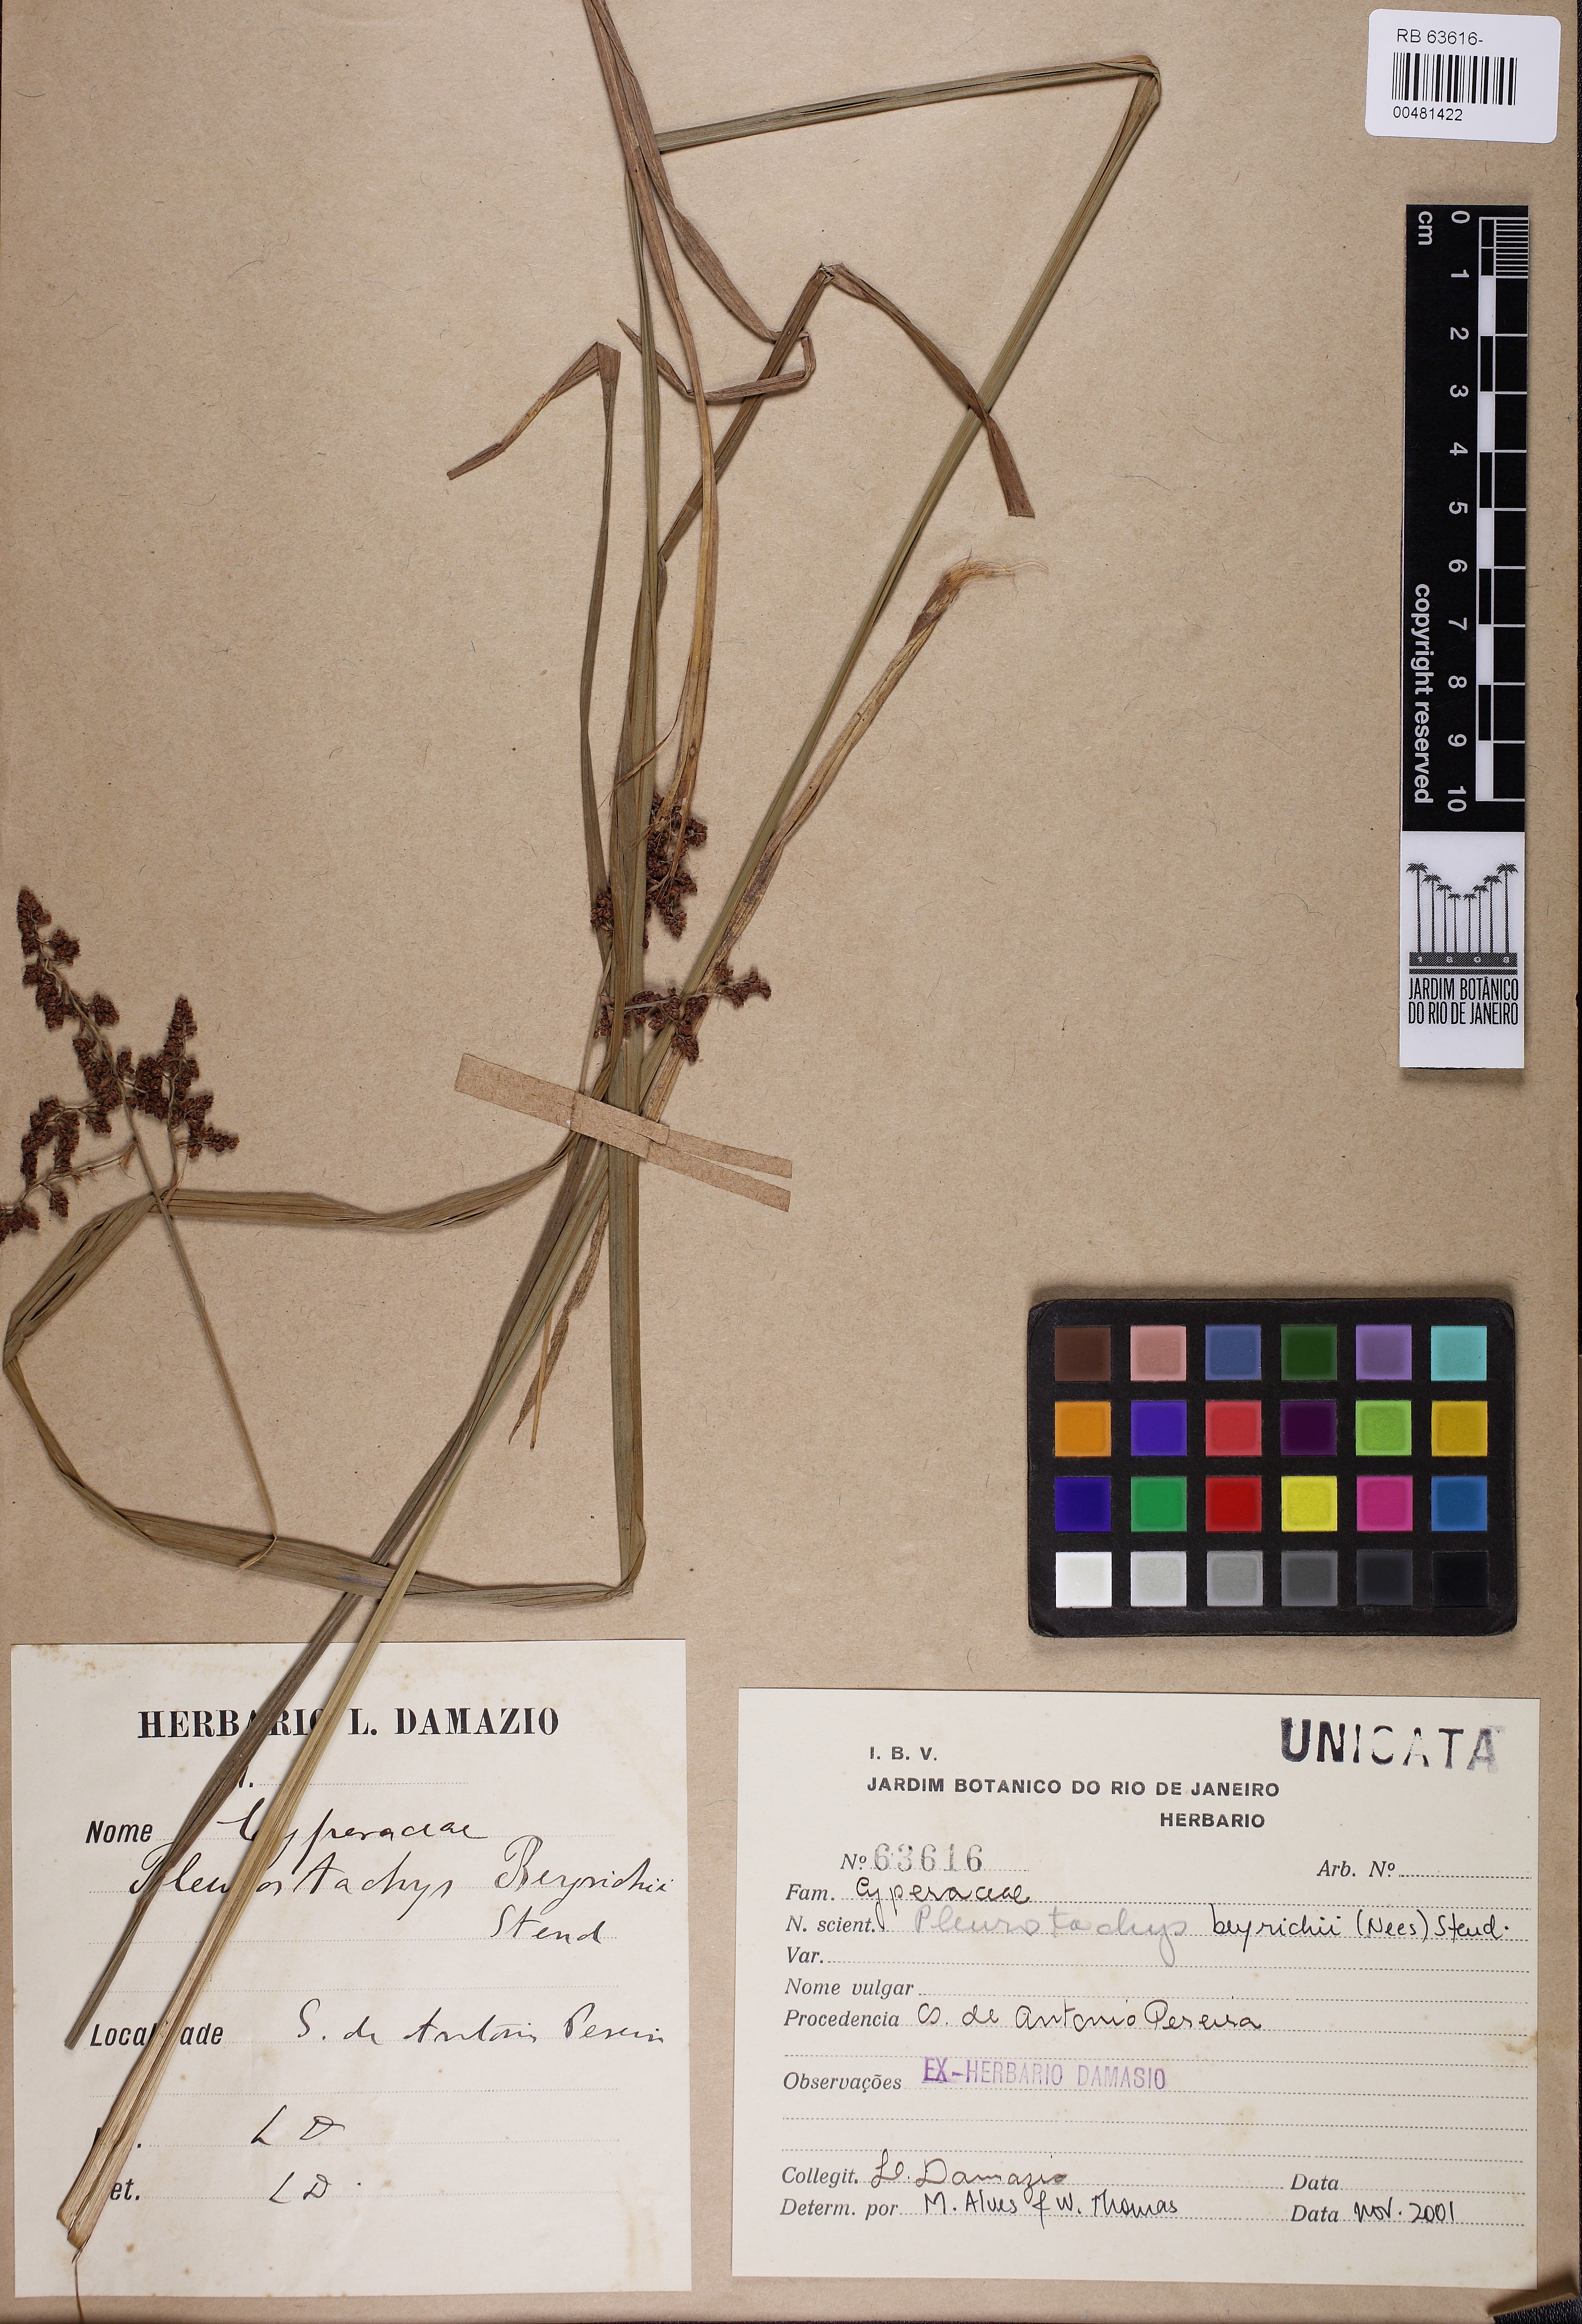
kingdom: Plantae
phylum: Tracheophyta
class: Liliopsida
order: Poales
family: Cyperaceae
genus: Rhynchospora
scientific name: Rhynchospora fluminensis
